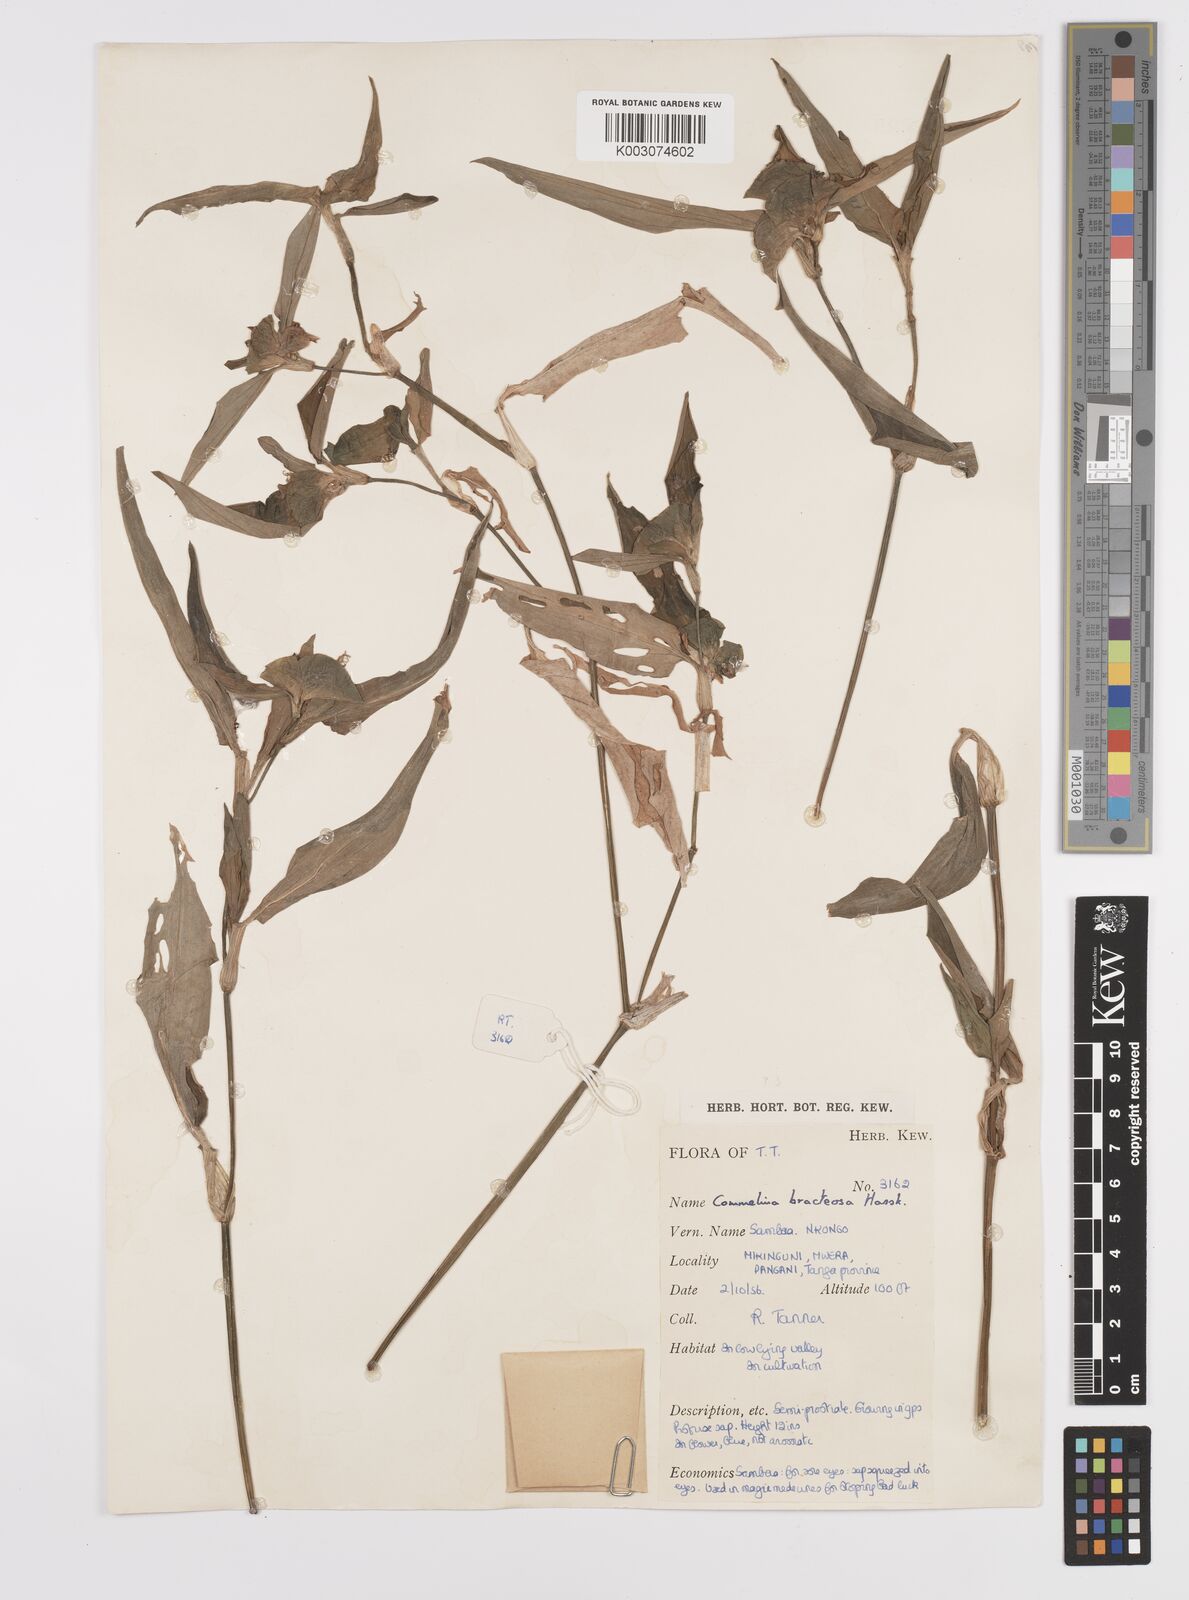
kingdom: Plantae
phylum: Tracheophyta
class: Liliopsida
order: Commelinales
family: Commelinaceae
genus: Commelina
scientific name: Commelina erecta
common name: Blousel blommetjie
